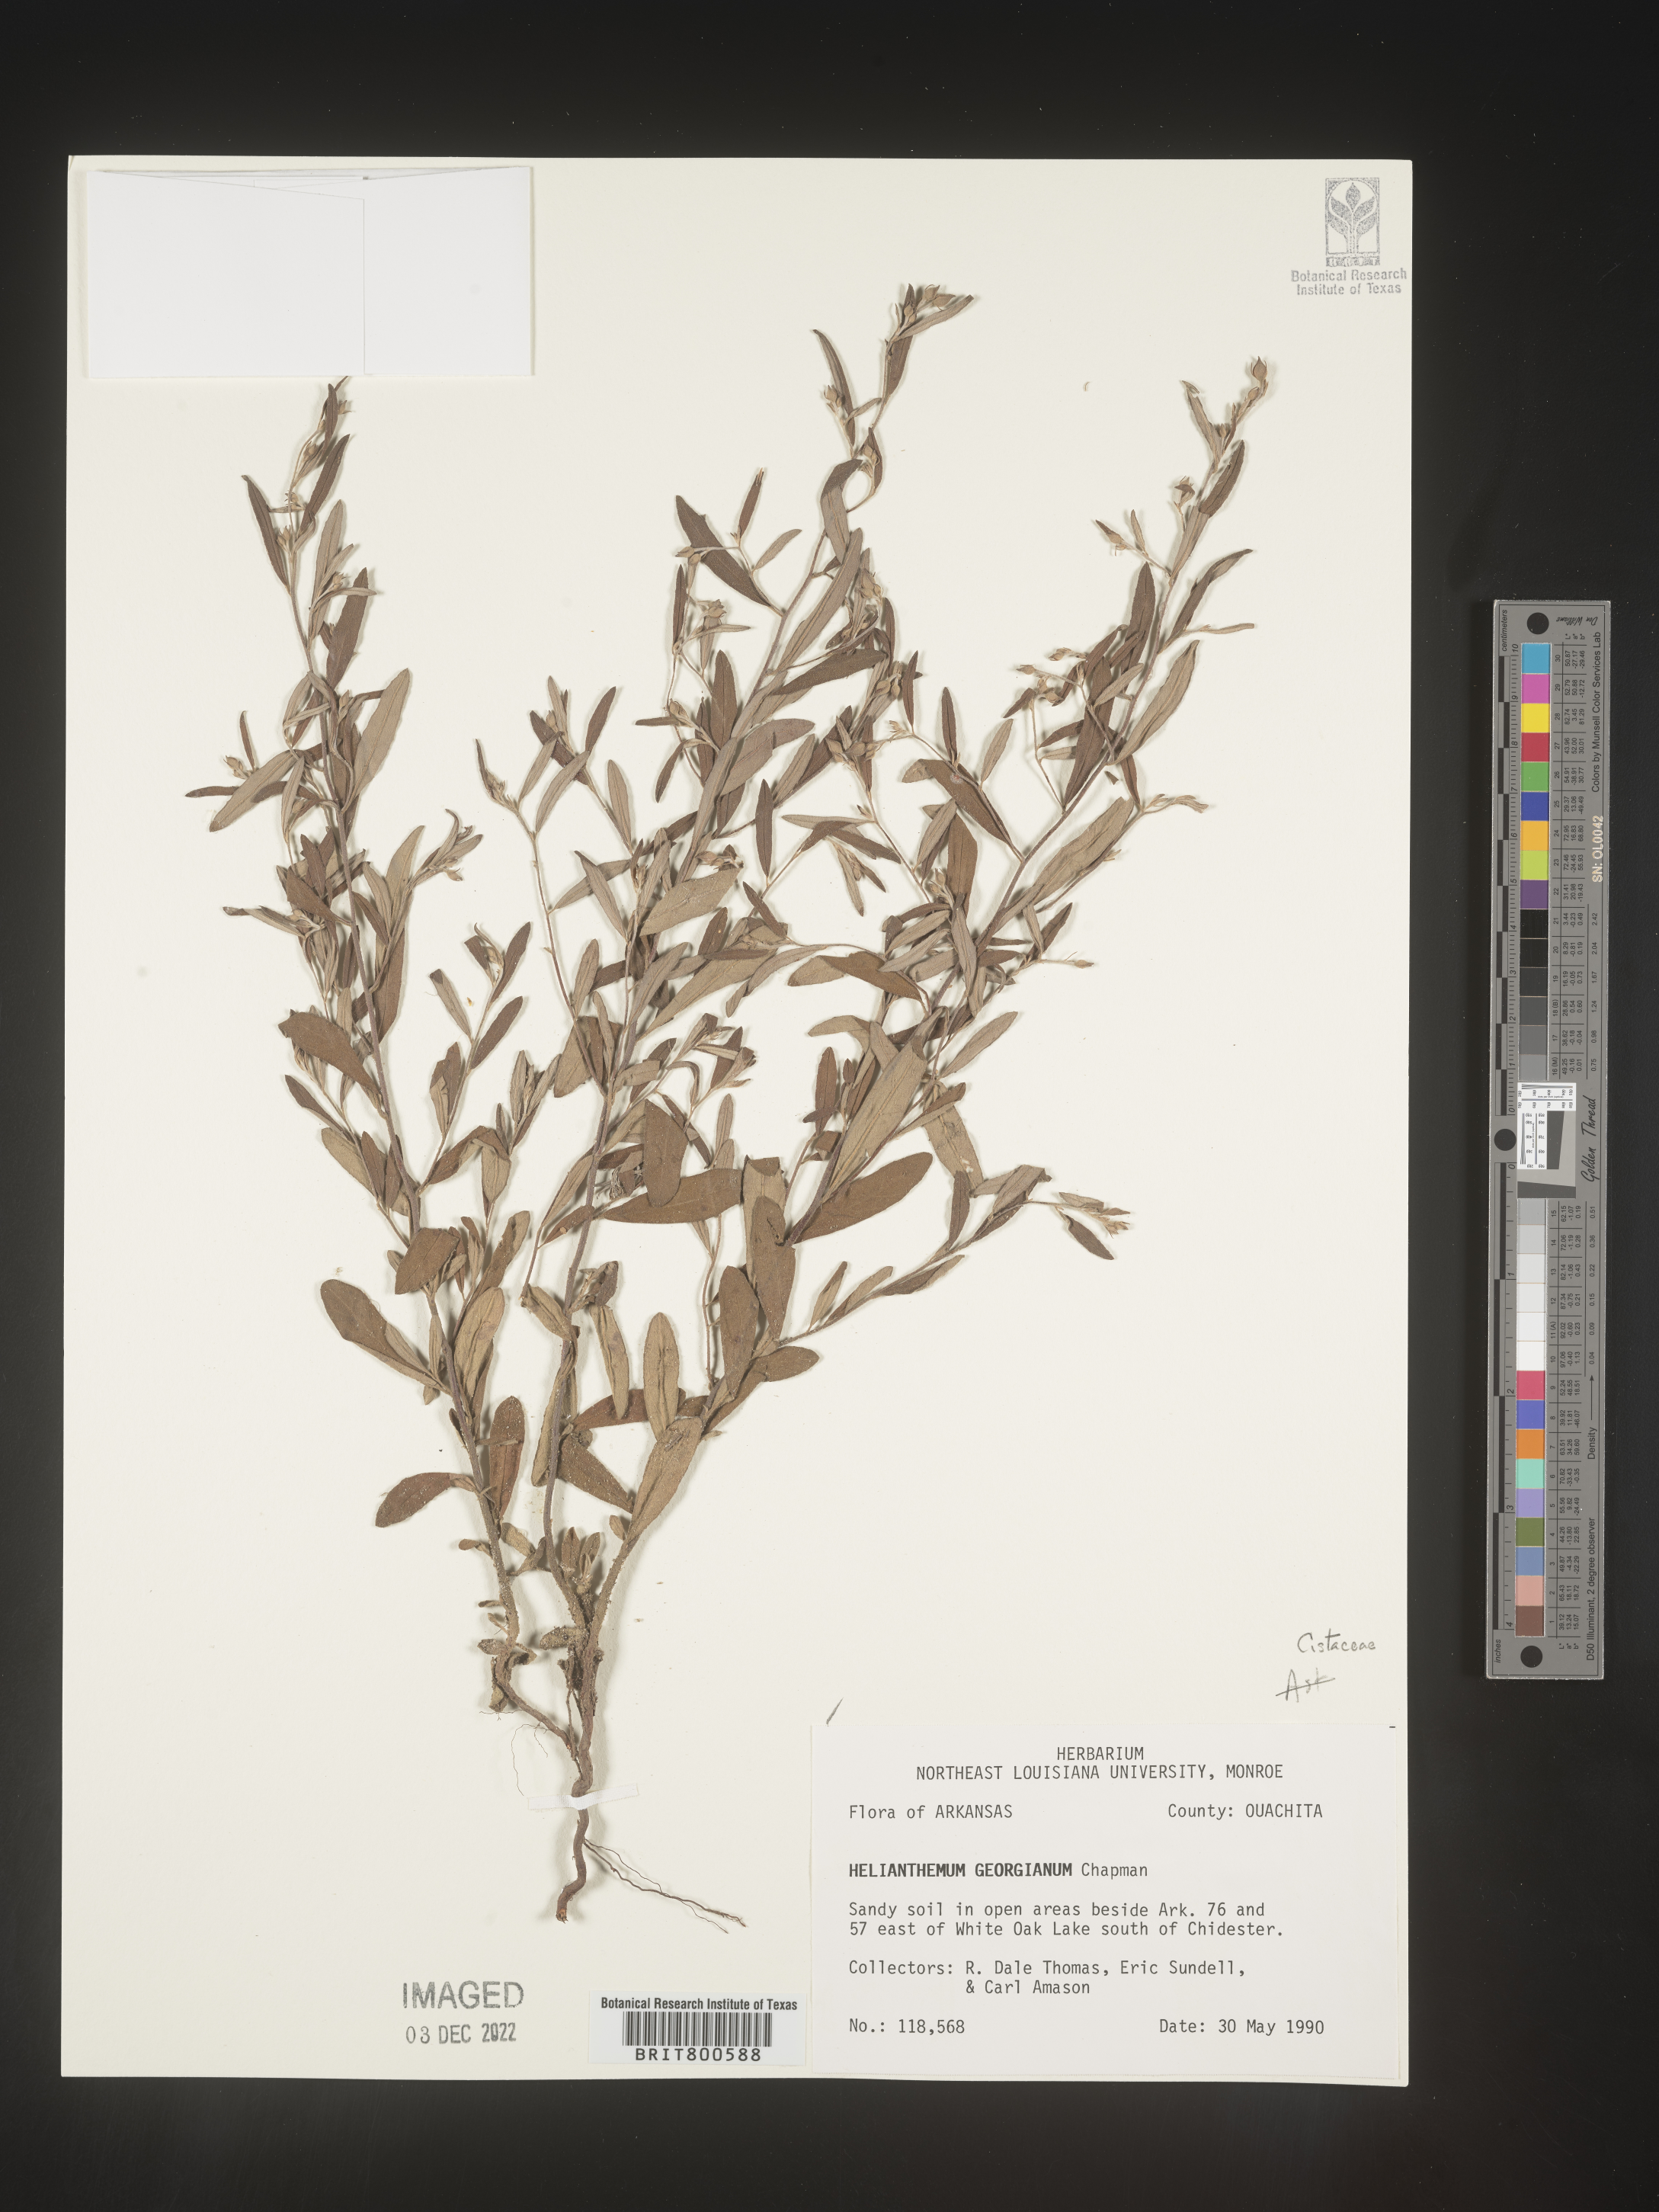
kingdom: Plantae
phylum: Tracheophyta
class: Magnoliopsida
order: Malvales
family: Cistaceae
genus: Crocanthemum
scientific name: Crocanthemum georgianum
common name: Georgia frostweed
